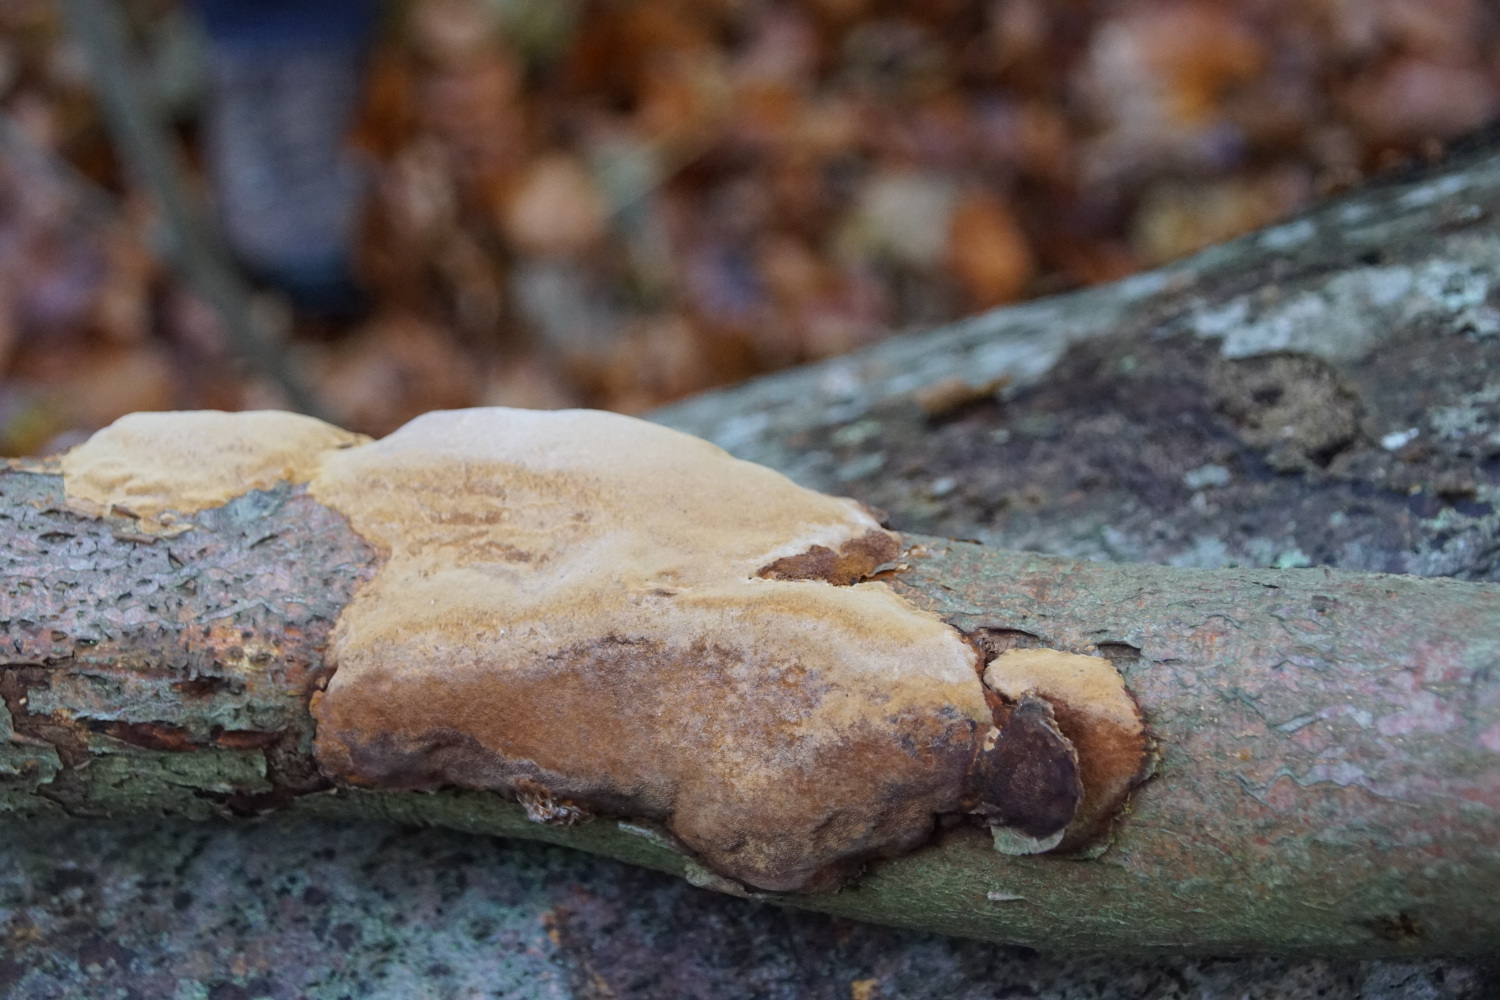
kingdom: Fungi
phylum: Basidiomycota
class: Agaricomycetes
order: Hymenochaetales
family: Hymenochaetaceae
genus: Fuscoporia
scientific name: Fuscoporia ferrea
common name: skorpe-ildporesvamp
